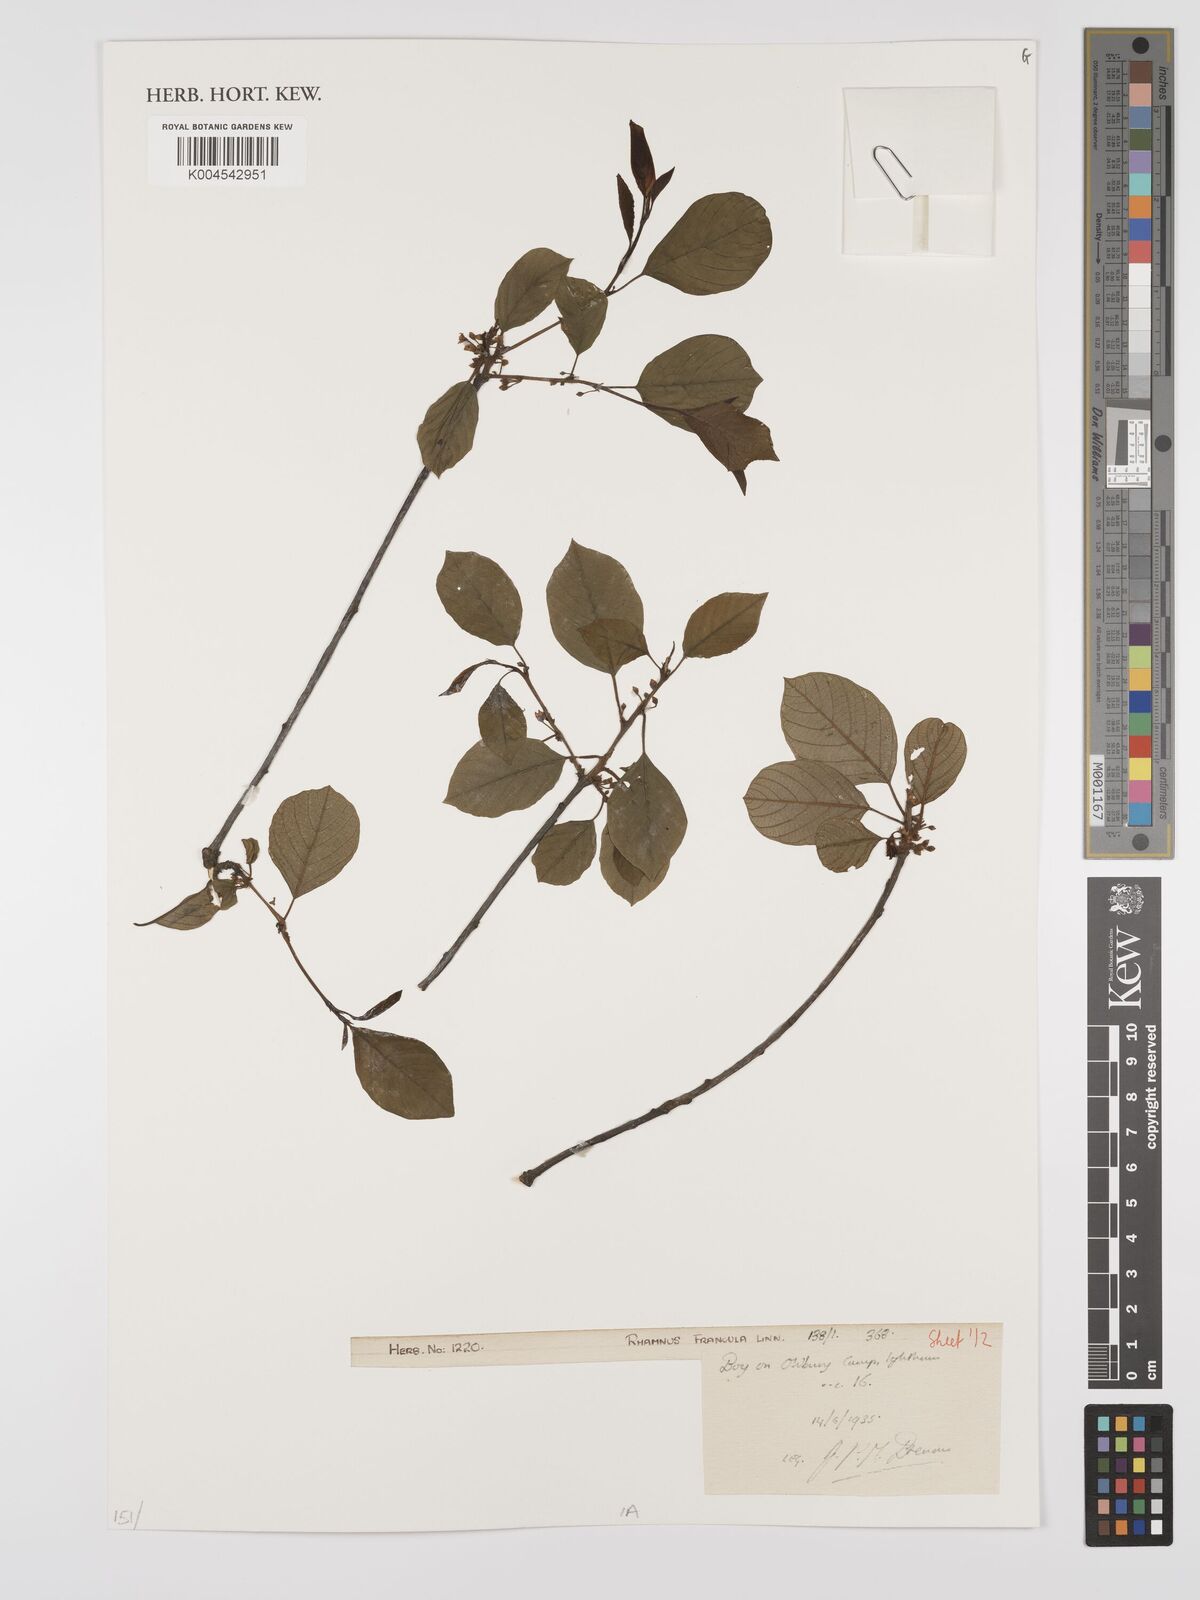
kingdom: Plantae
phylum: Tracheophyta
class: Magnoliopsida
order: Rosales
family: Rhamnaceae
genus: Frangula
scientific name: Frangula alnus
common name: Alder buckthorn
